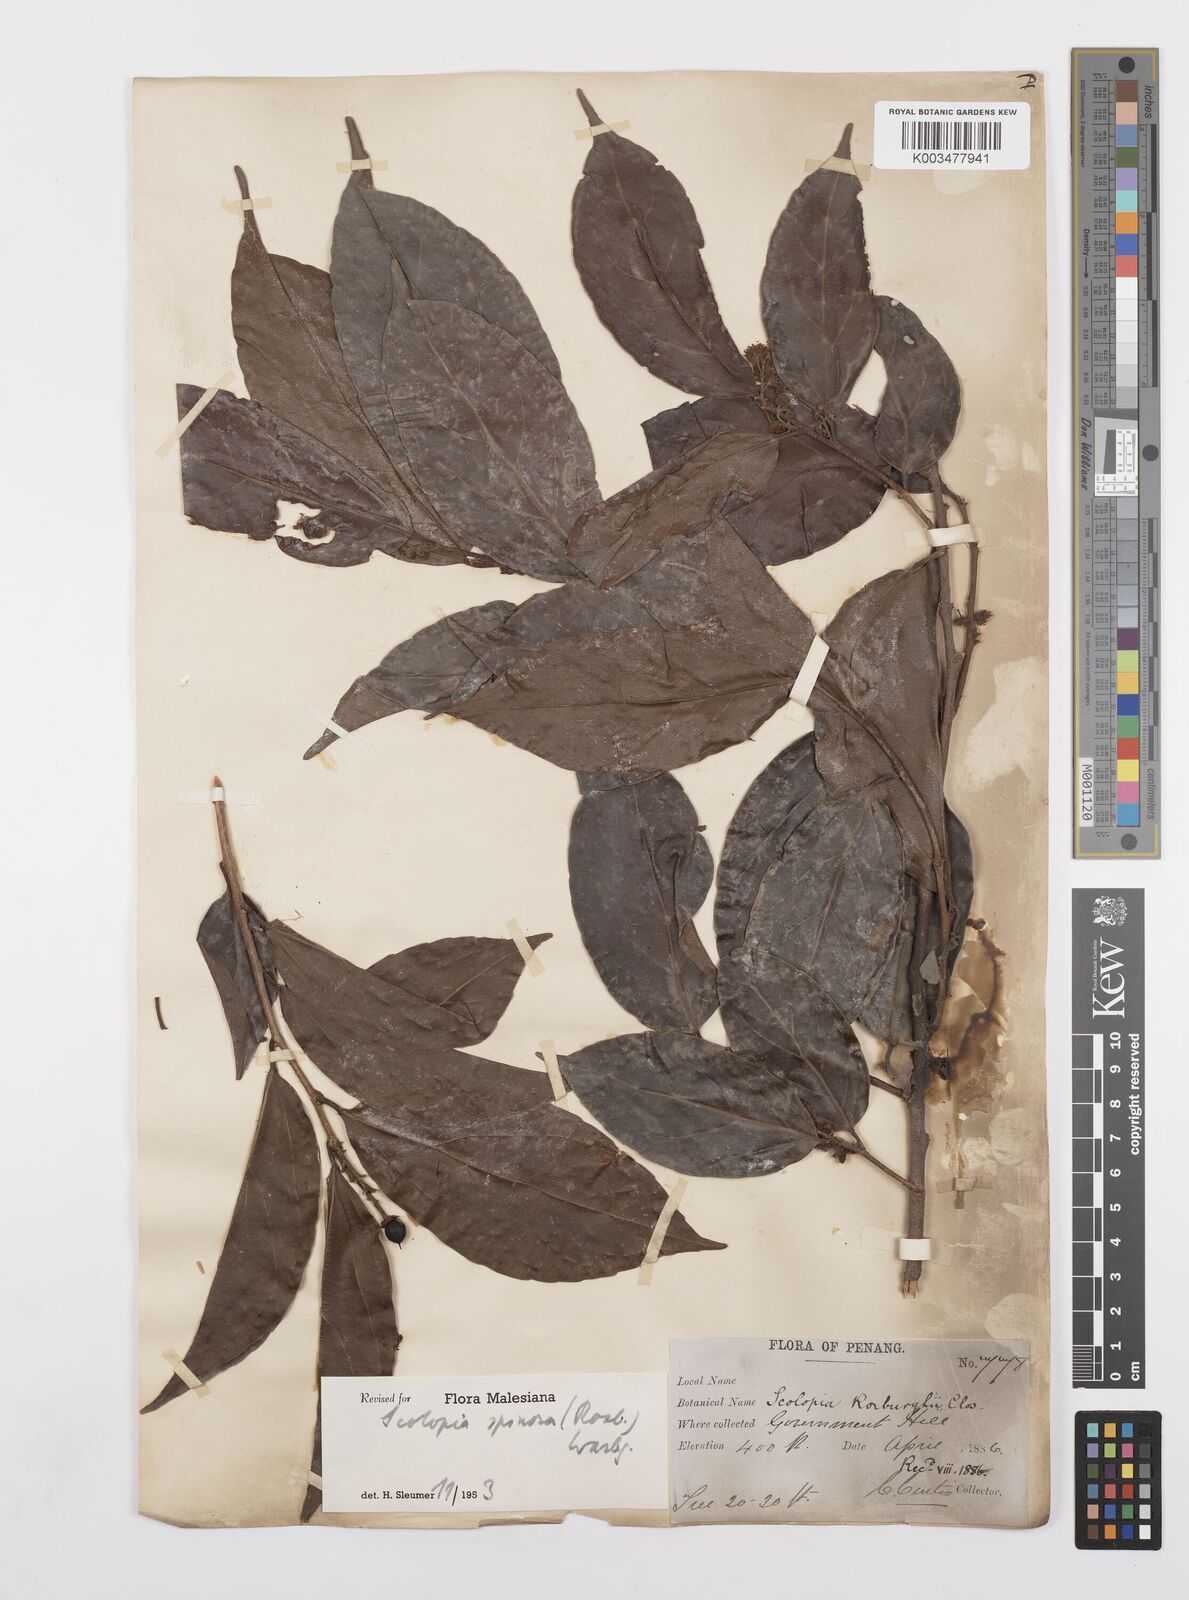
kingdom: Plantae
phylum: Tracheophyta
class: Magnoliopsida
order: Malpighiales
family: Salicaceae
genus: Scolopia
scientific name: Scolopia spinosa
